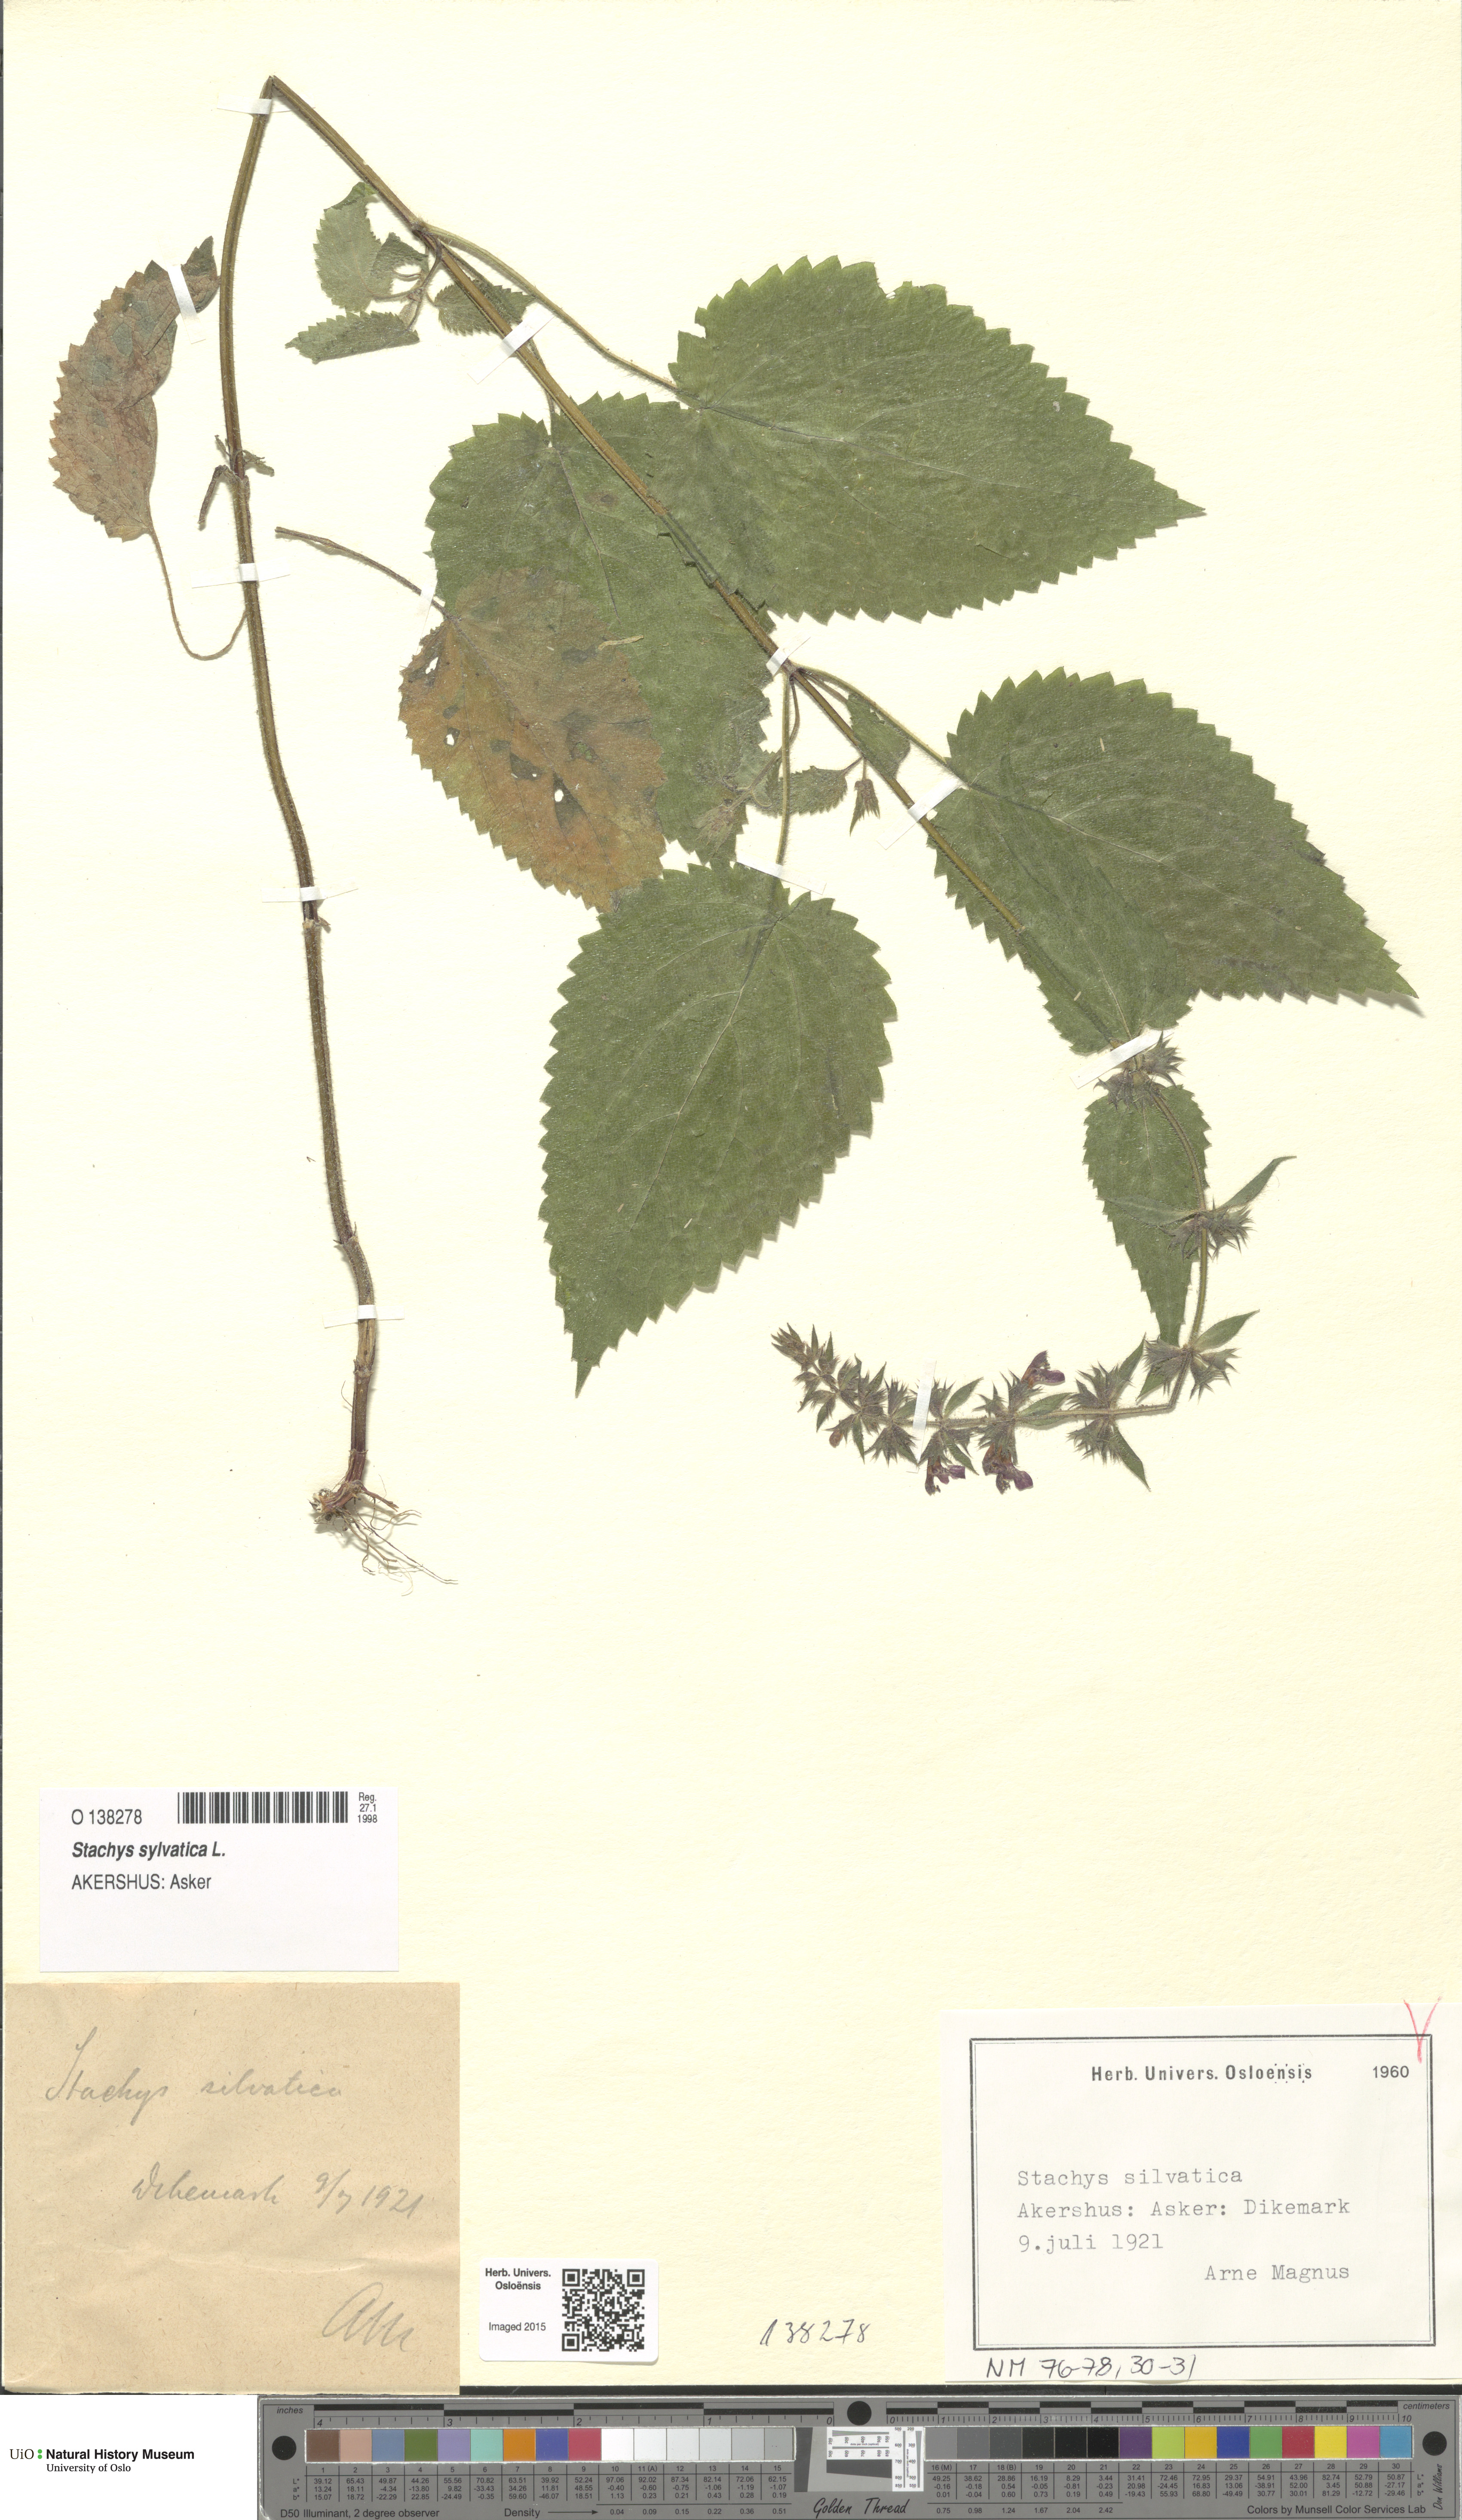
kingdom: Plantae
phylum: Tracheophyta
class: Magnoliopsida
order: Lamiales
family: Lamiaceae
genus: Stachys
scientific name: Stachys sylvatica
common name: Hedge woundwort
